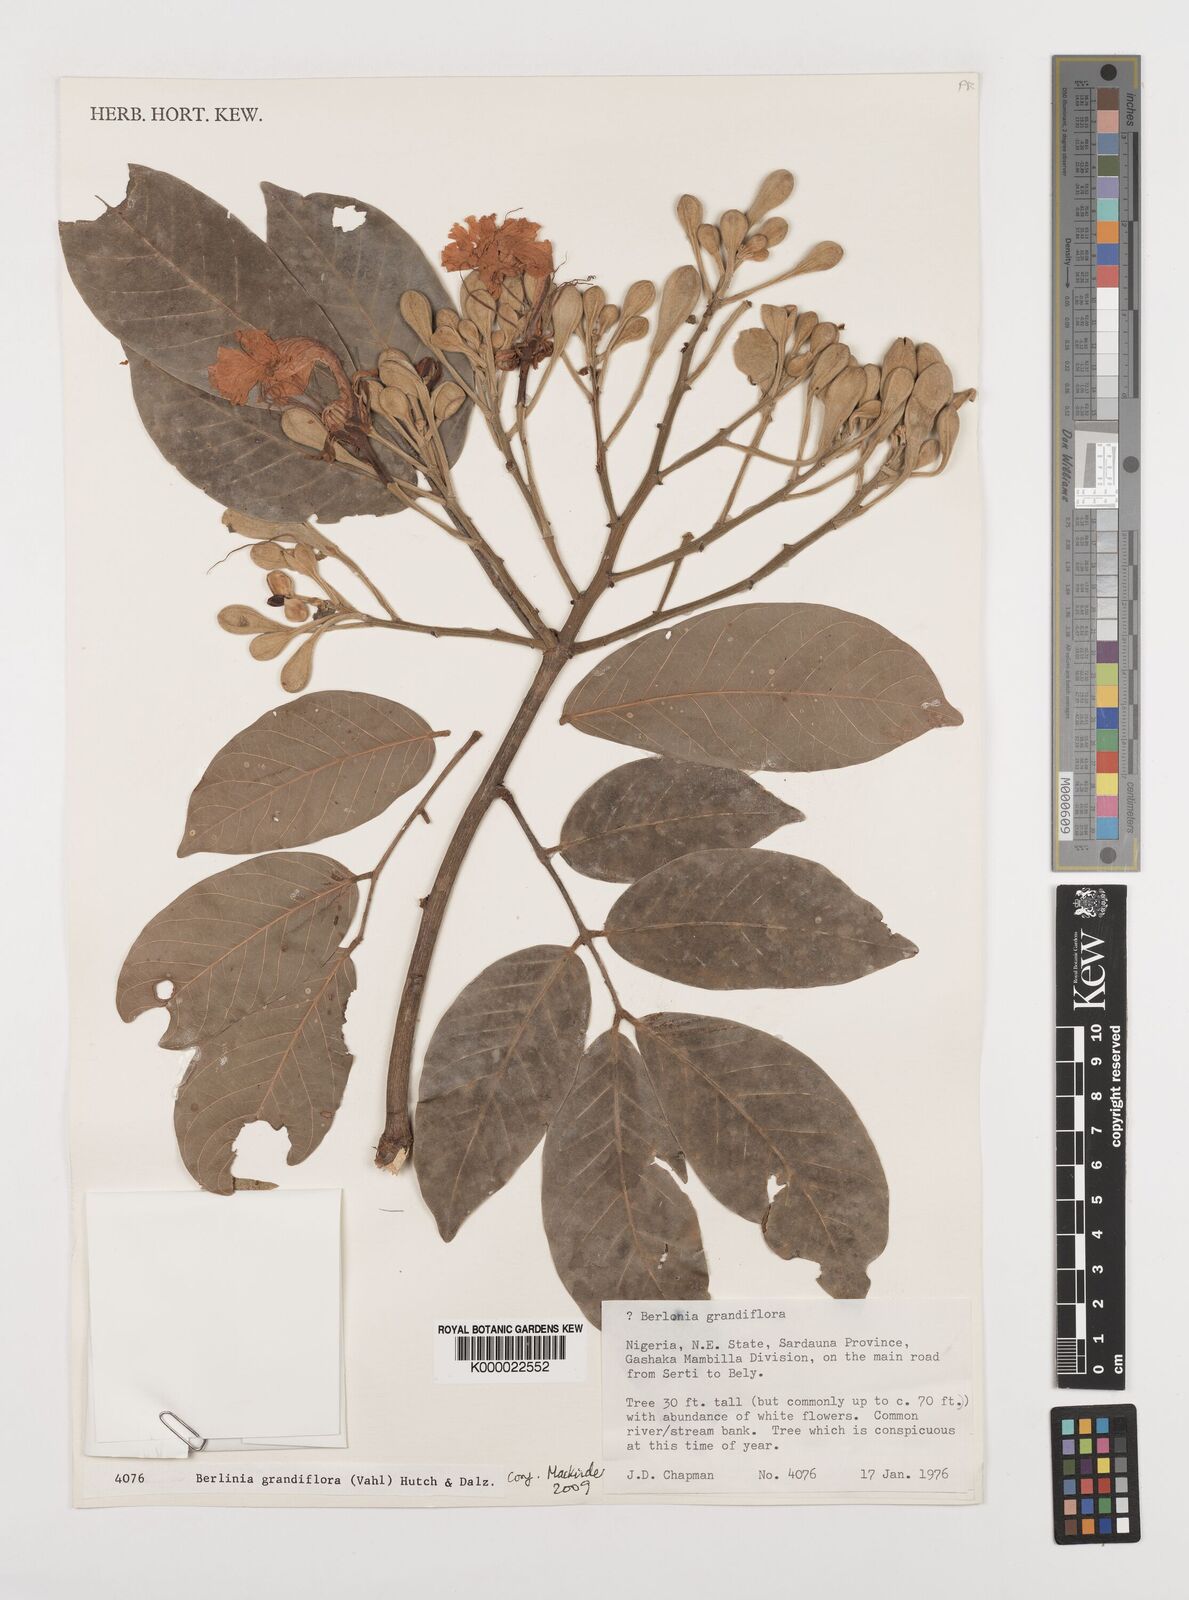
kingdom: Plantae
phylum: Tracheophyta
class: Magnoliopsida
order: Fabales
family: Fabaceae
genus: Berlinia
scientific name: Berlinia grandiflora
